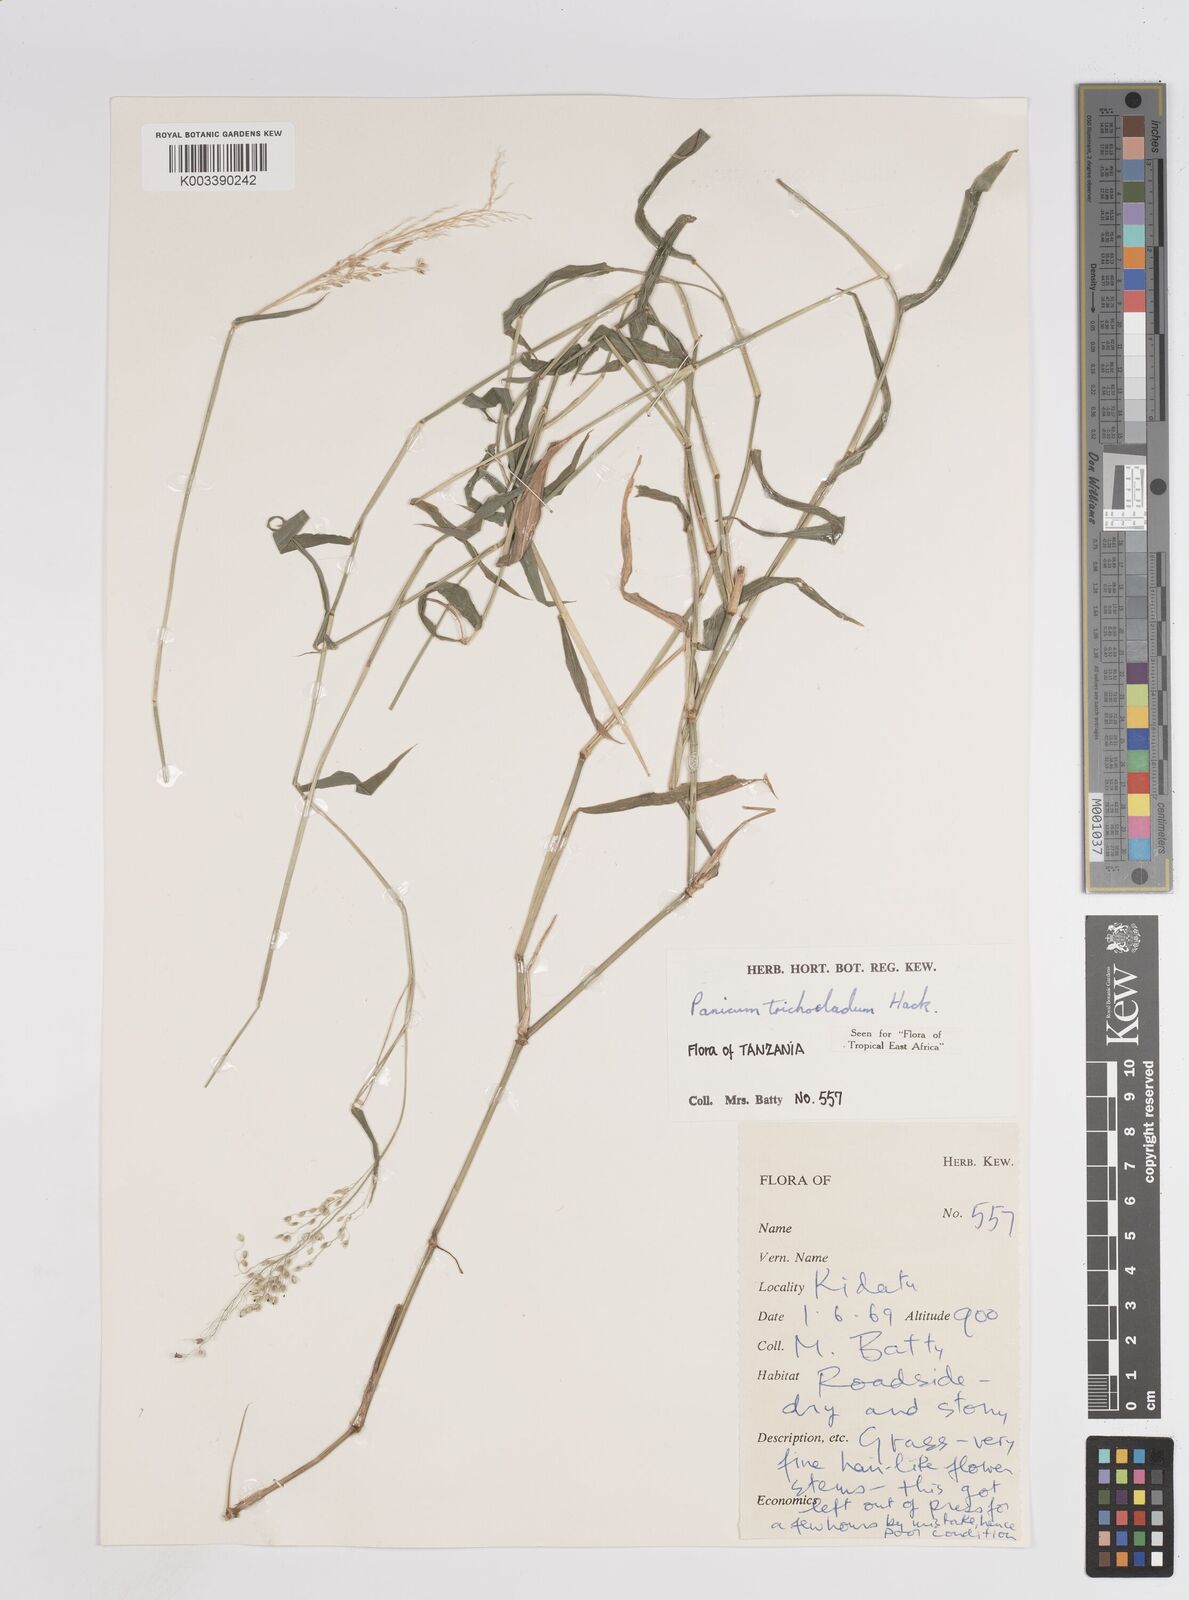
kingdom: Plantae
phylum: Tracheophyta
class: Liliopsida
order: Poales
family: Poaceae
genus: Panicum
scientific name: Panicum trichocladum
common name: Donkey grass
